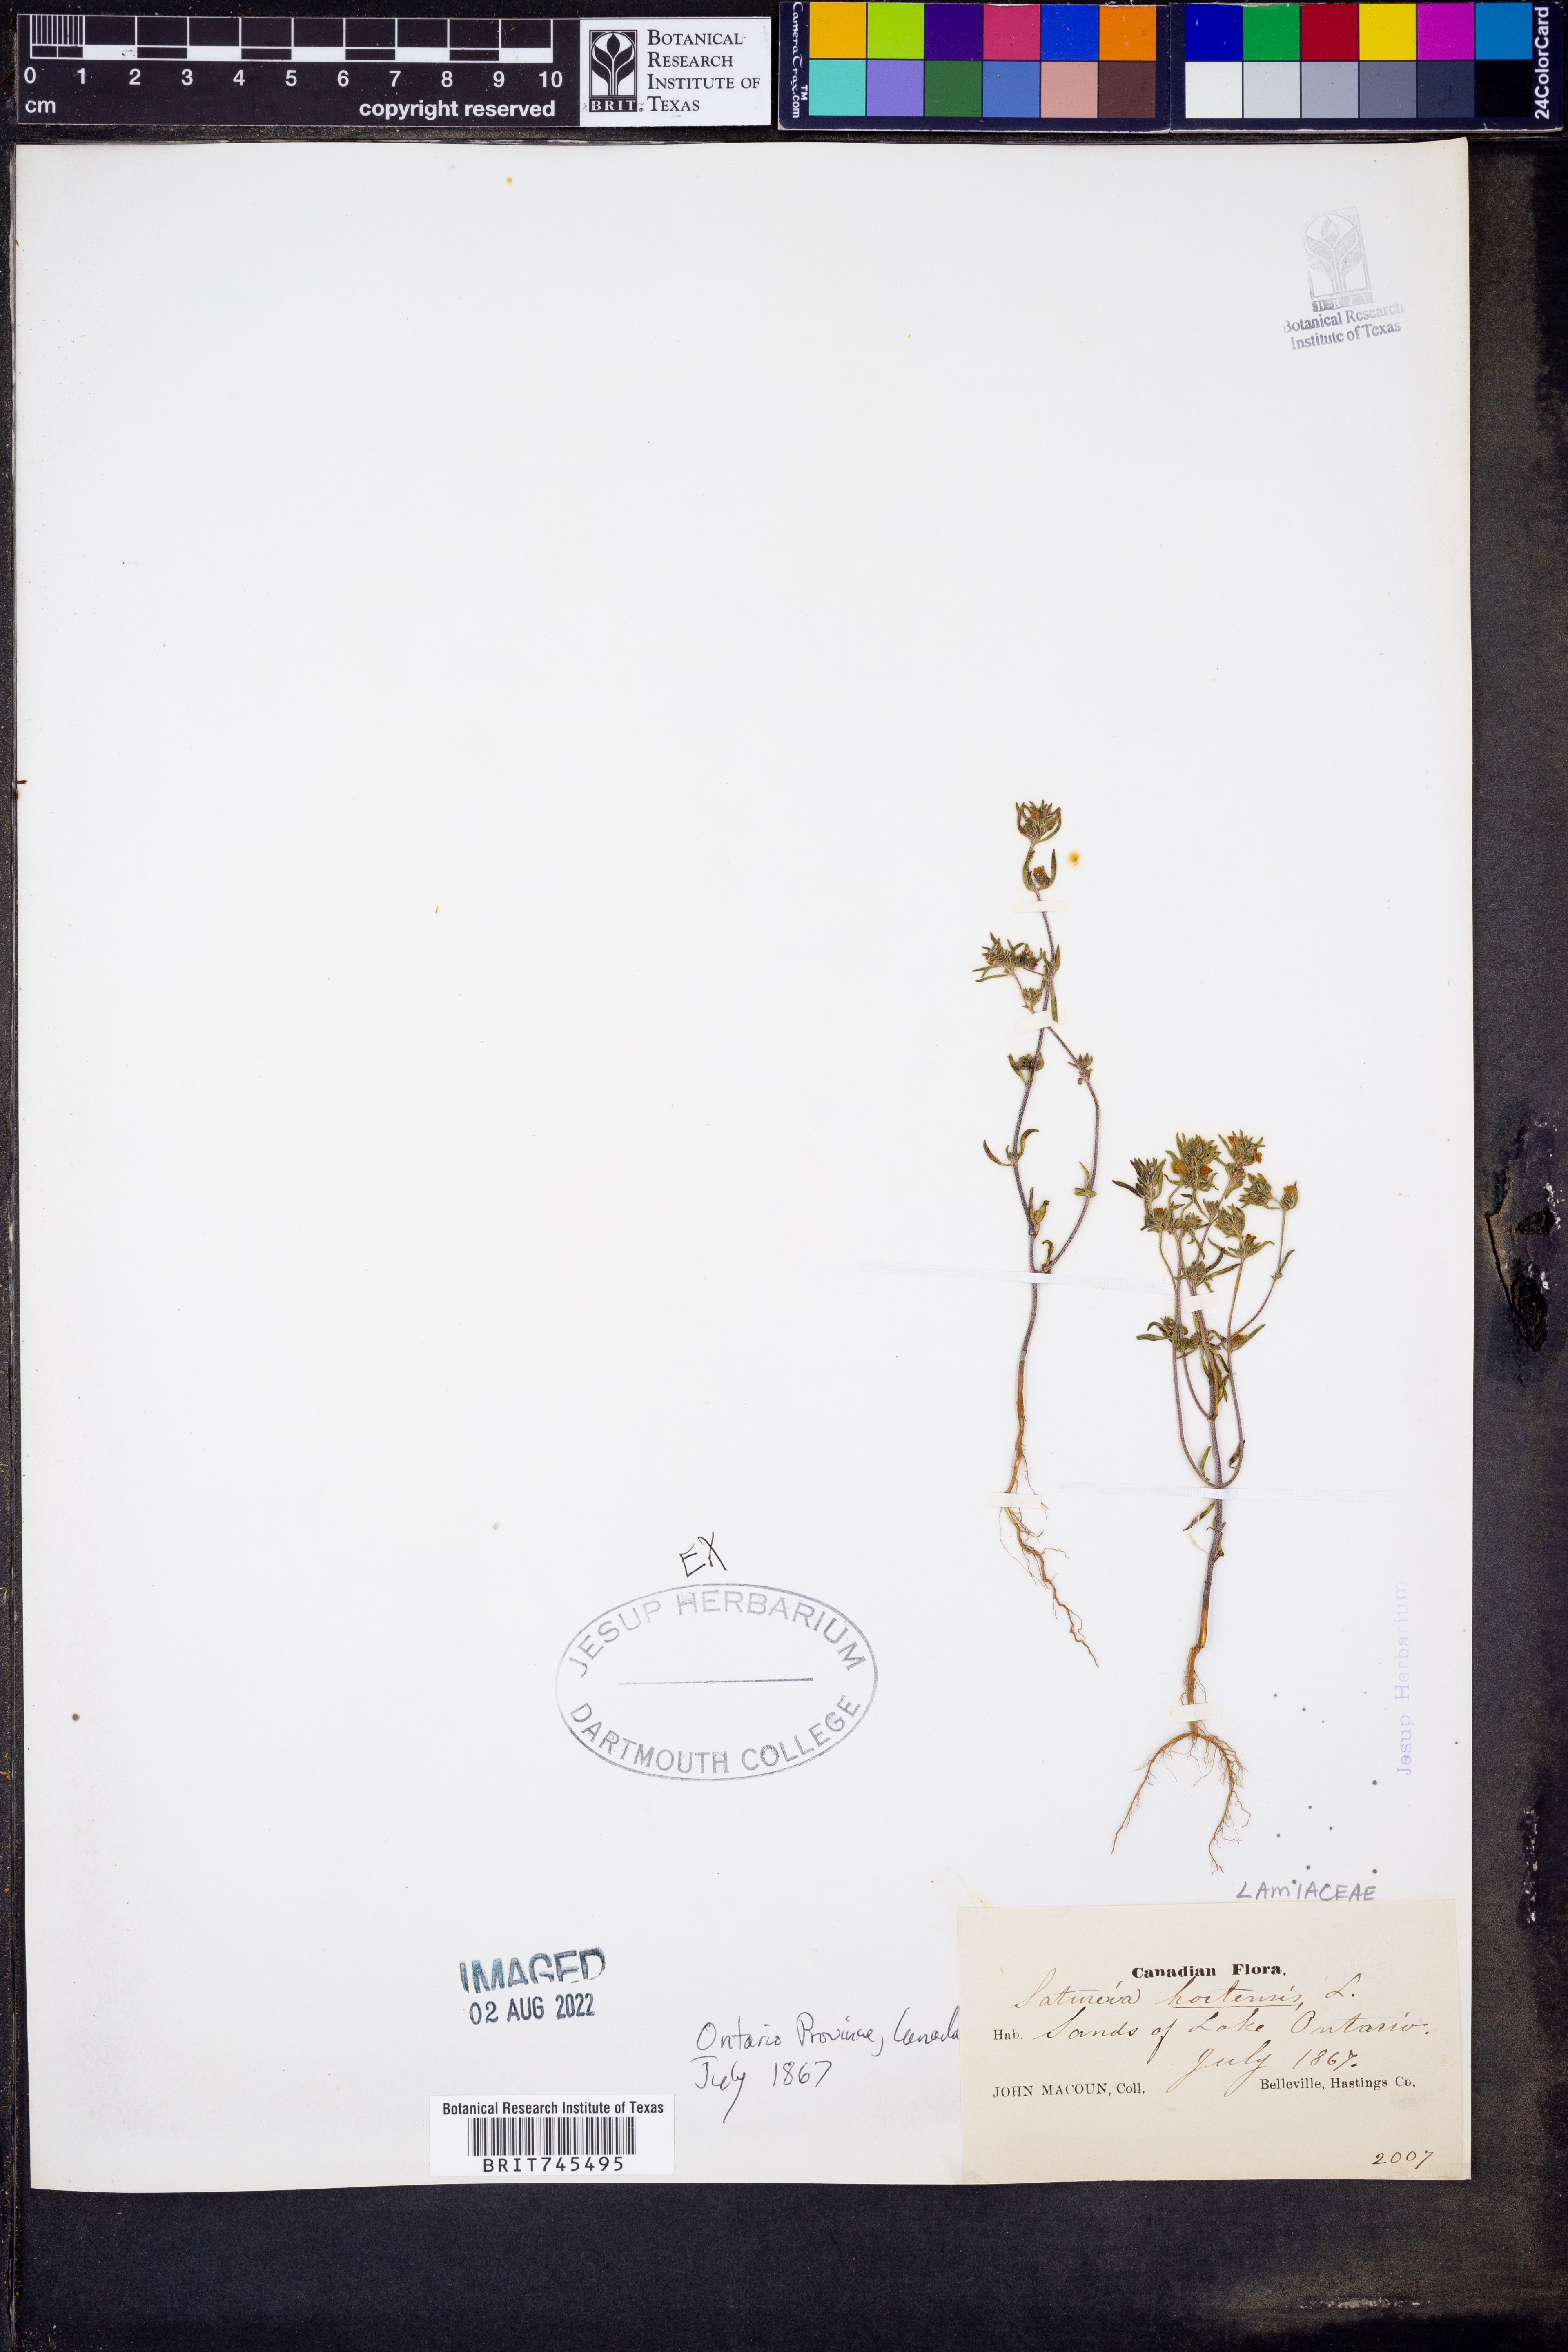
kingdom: Plantae
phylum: Tracheophyta
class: Magnoliopsida
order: Lamiales
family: Lamiaceae
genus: Satureja
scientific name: Satureja
